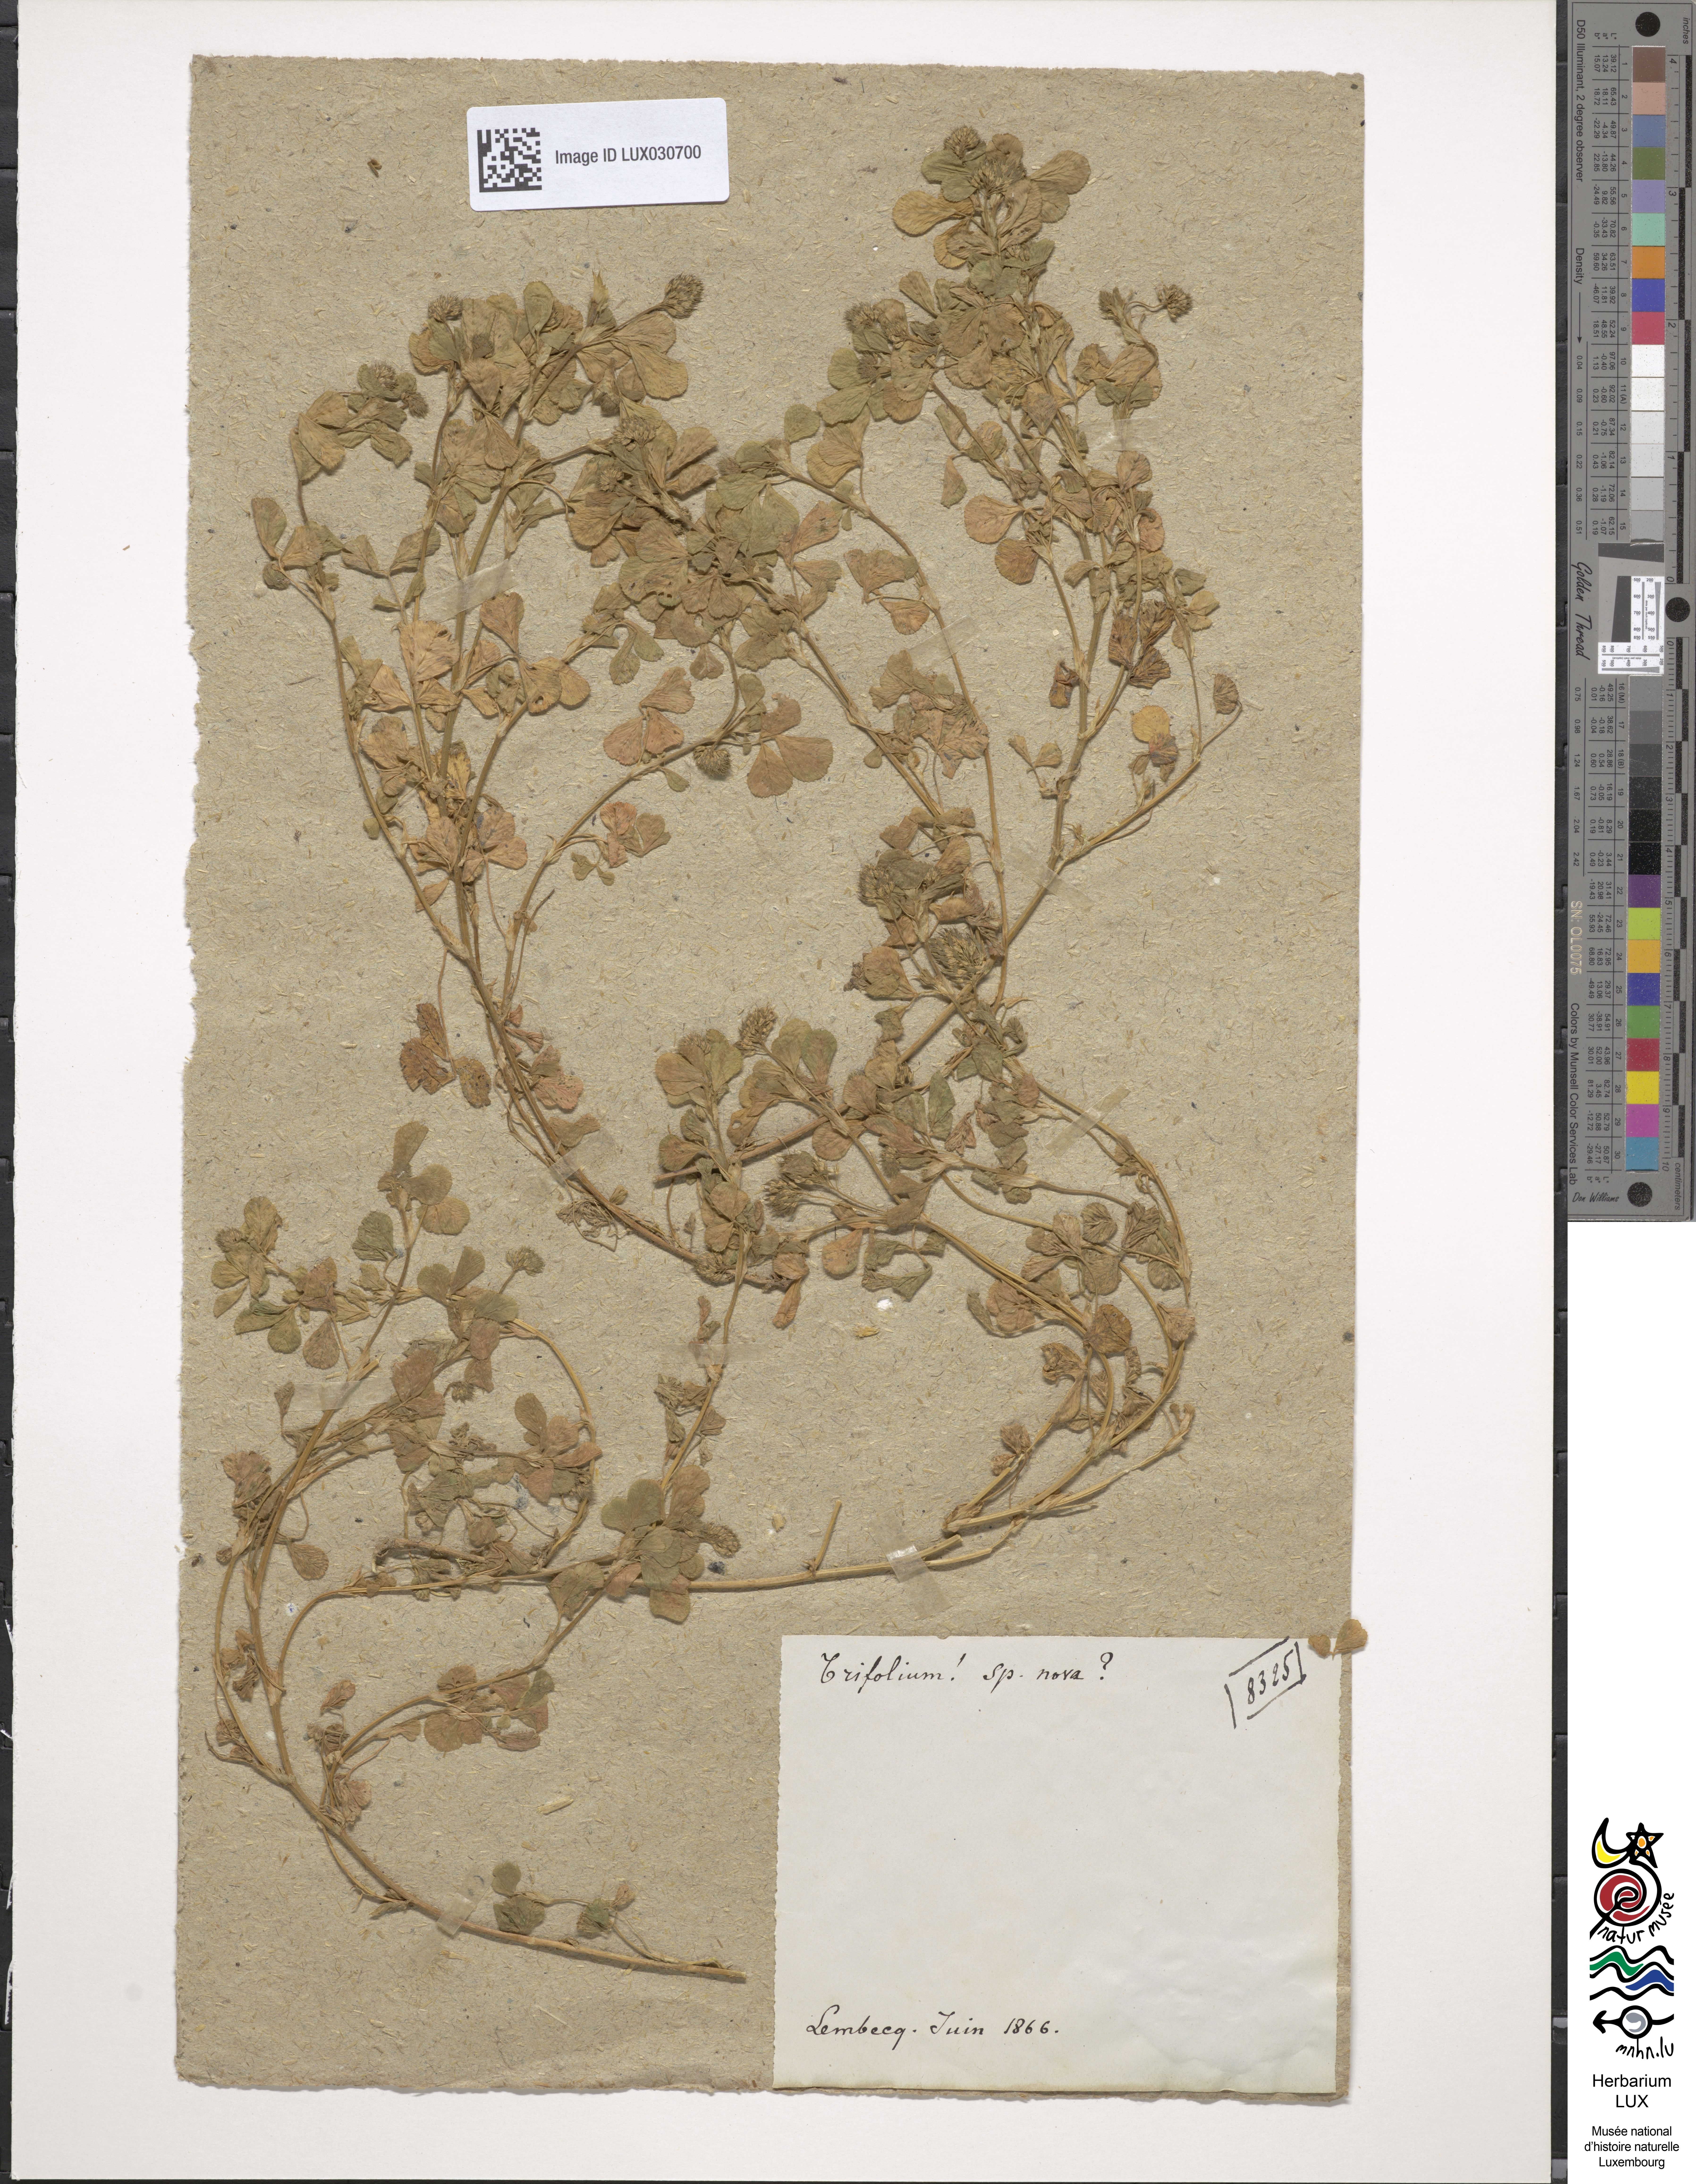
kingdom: Plantae
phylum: Tracheophyta
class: Magnoliopsida
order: Fabales
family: Fabaceae
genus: Trifolium
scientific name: Trifolium
